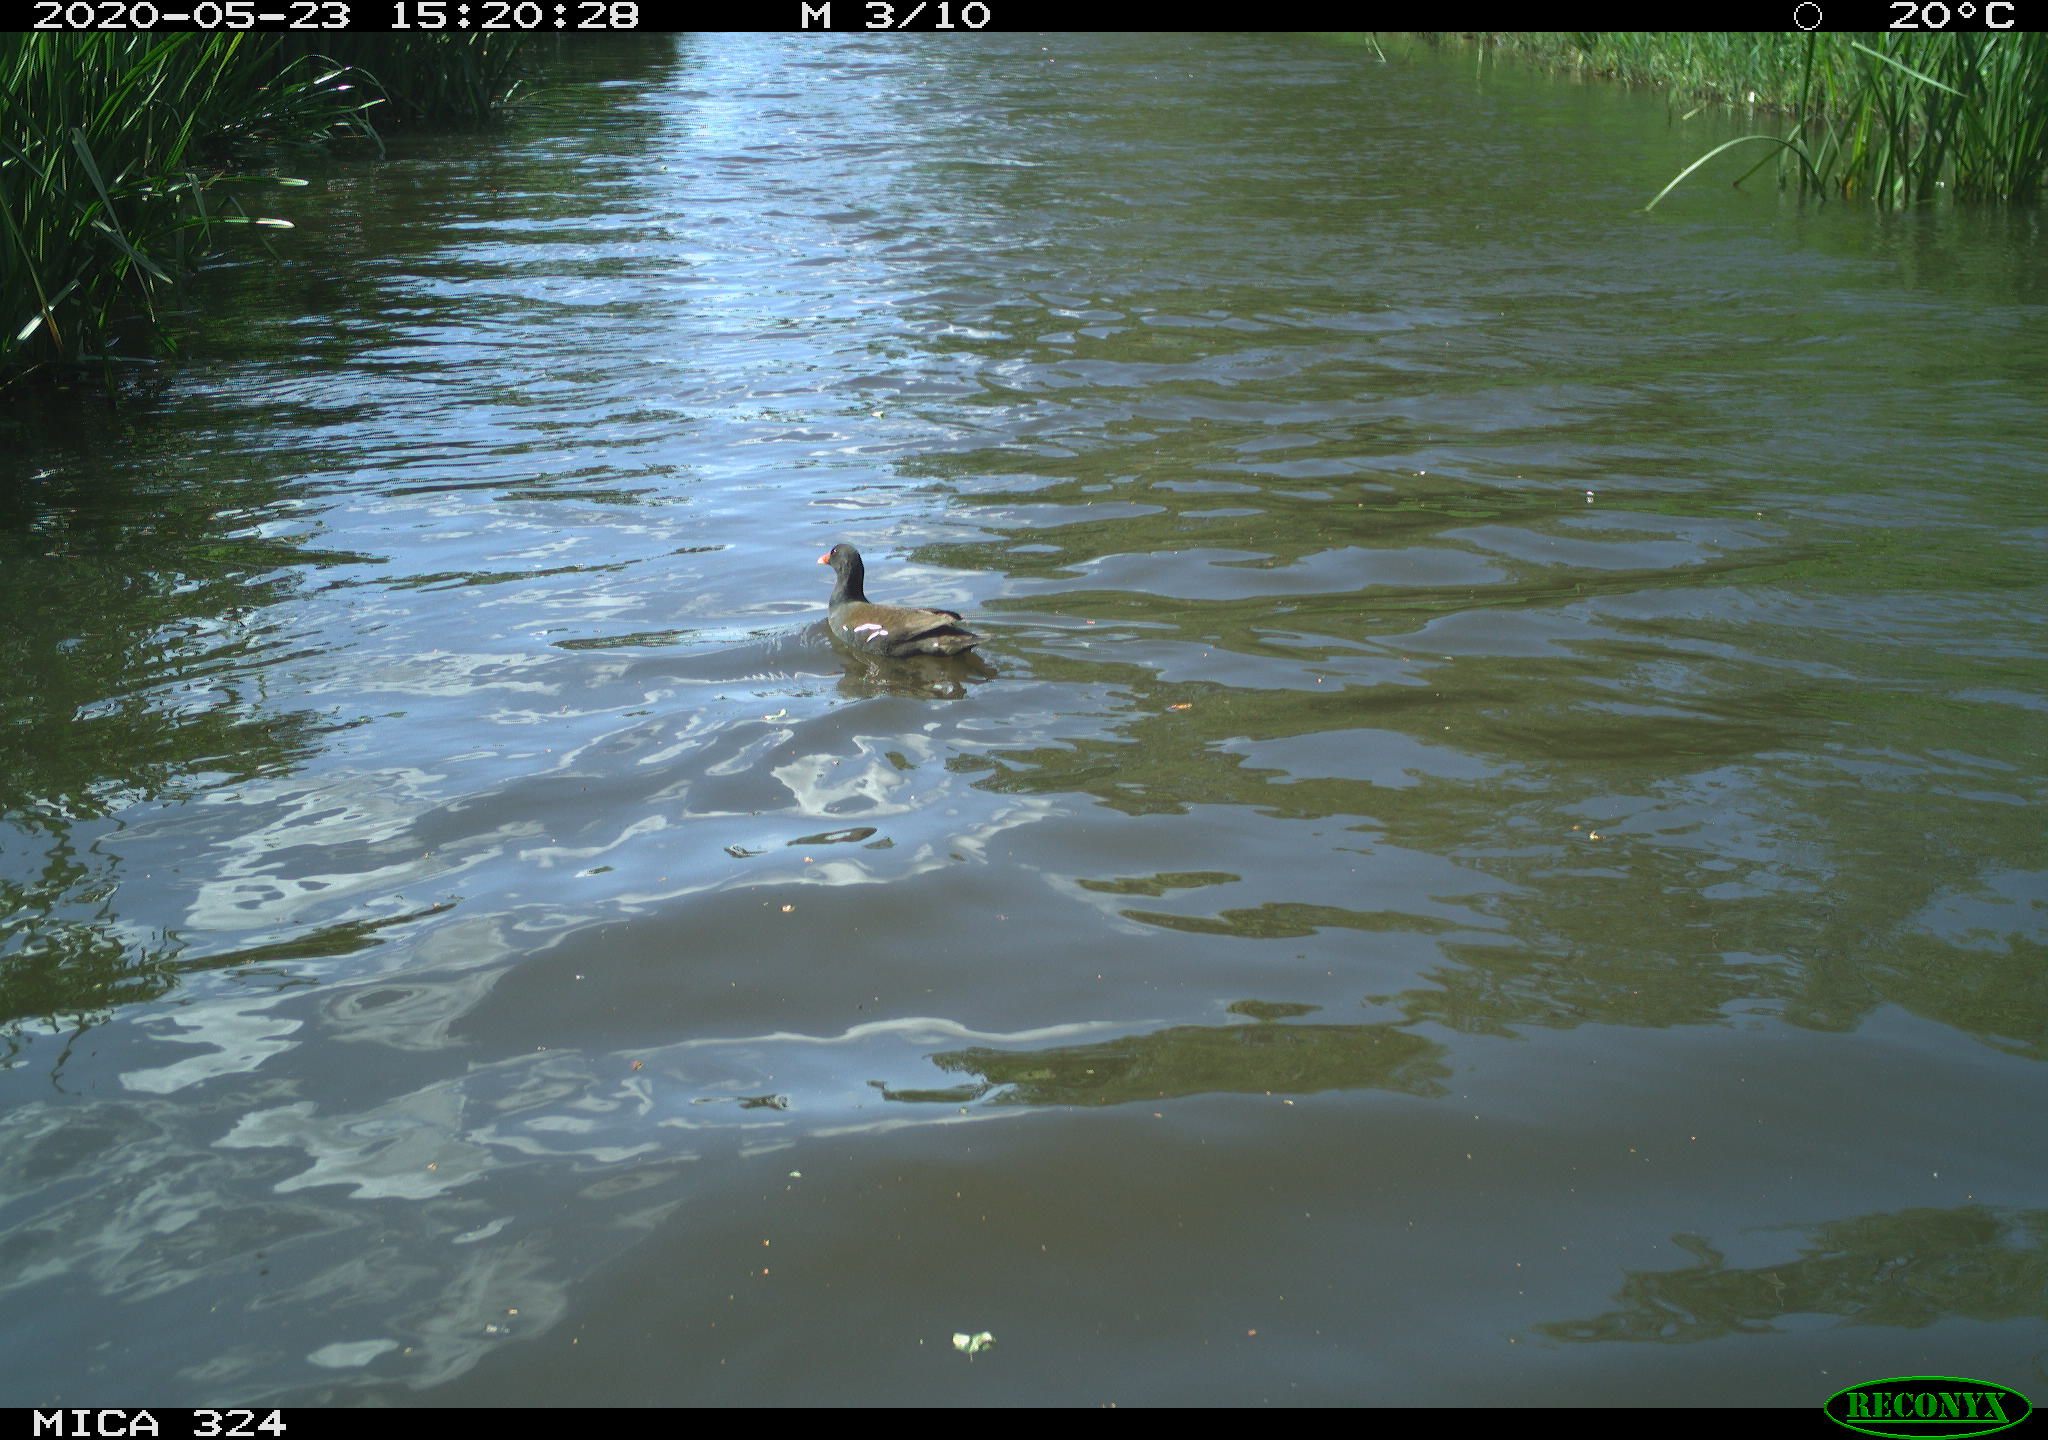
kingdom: Animalia
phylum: Chordata
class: Aves
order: Gruiformes
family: Rallidae
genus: Gallinula
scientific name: Gallinula chloropus
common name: Common moorhen
